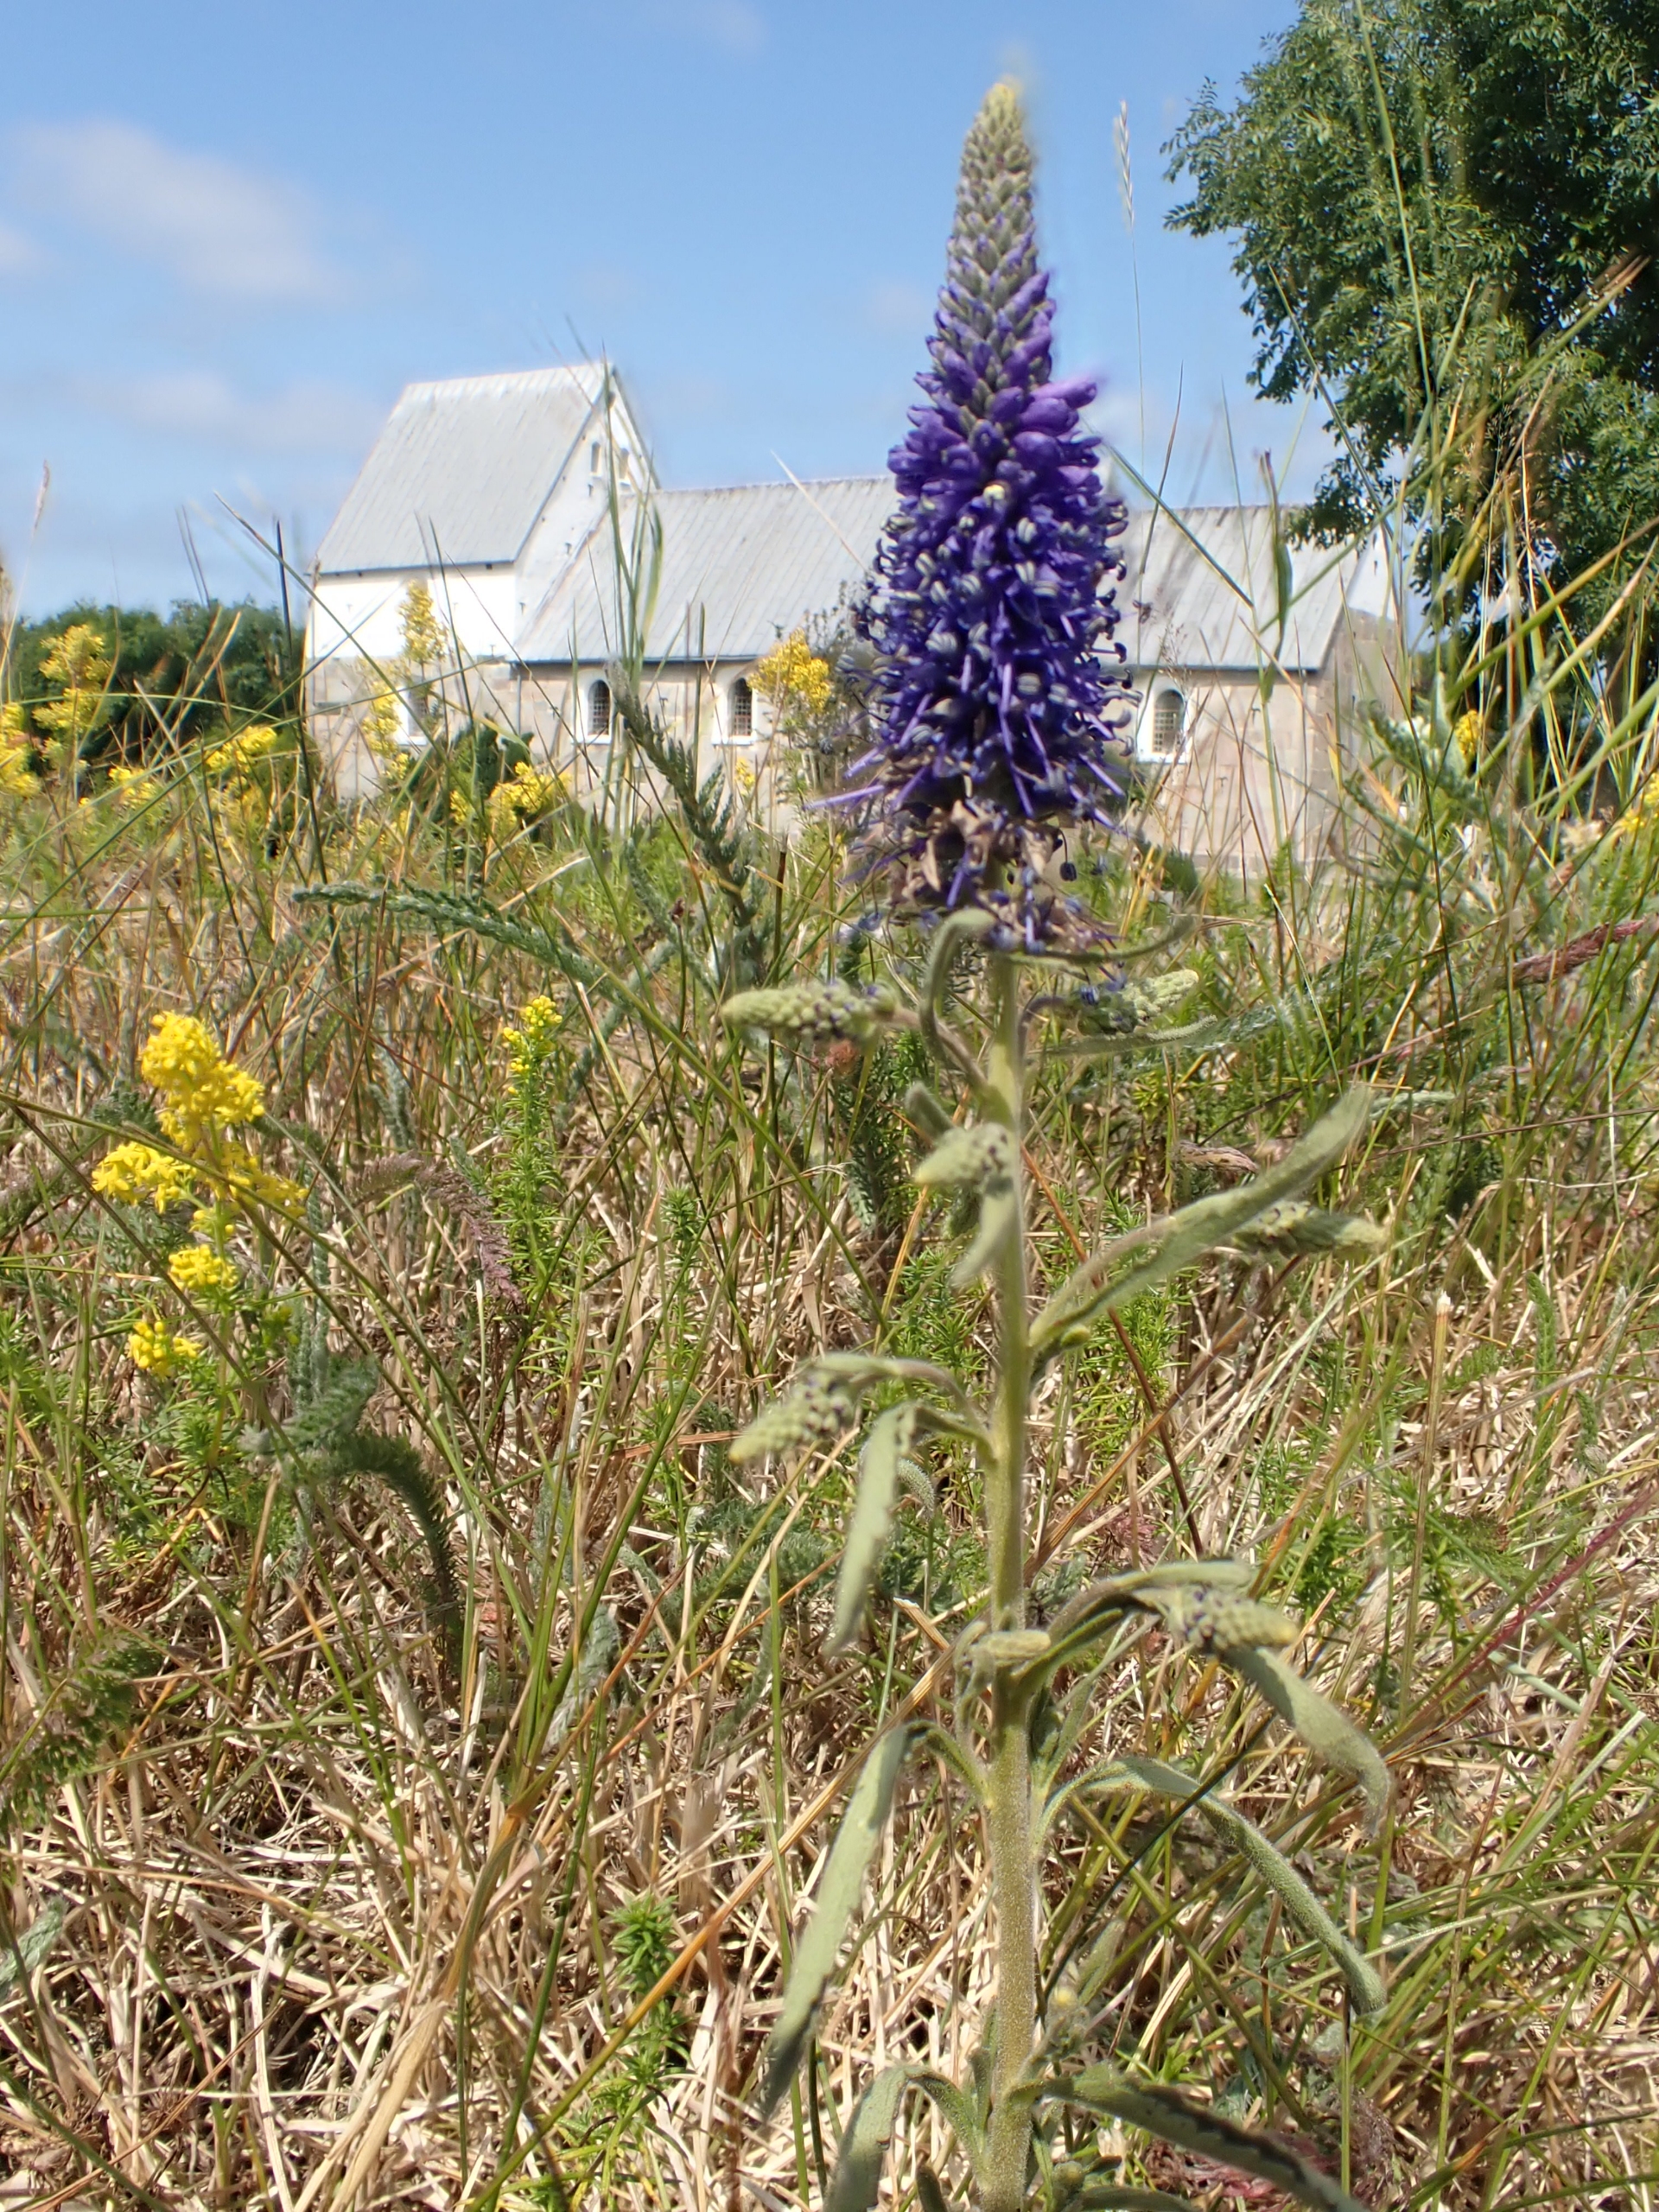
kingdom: Plantae
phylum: Tracheophyta
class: Magnoliopsida
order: Lamiales
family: Plantaginaceae
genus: Veronica
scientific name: Veronica spicata
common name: Aks-ærenpris
